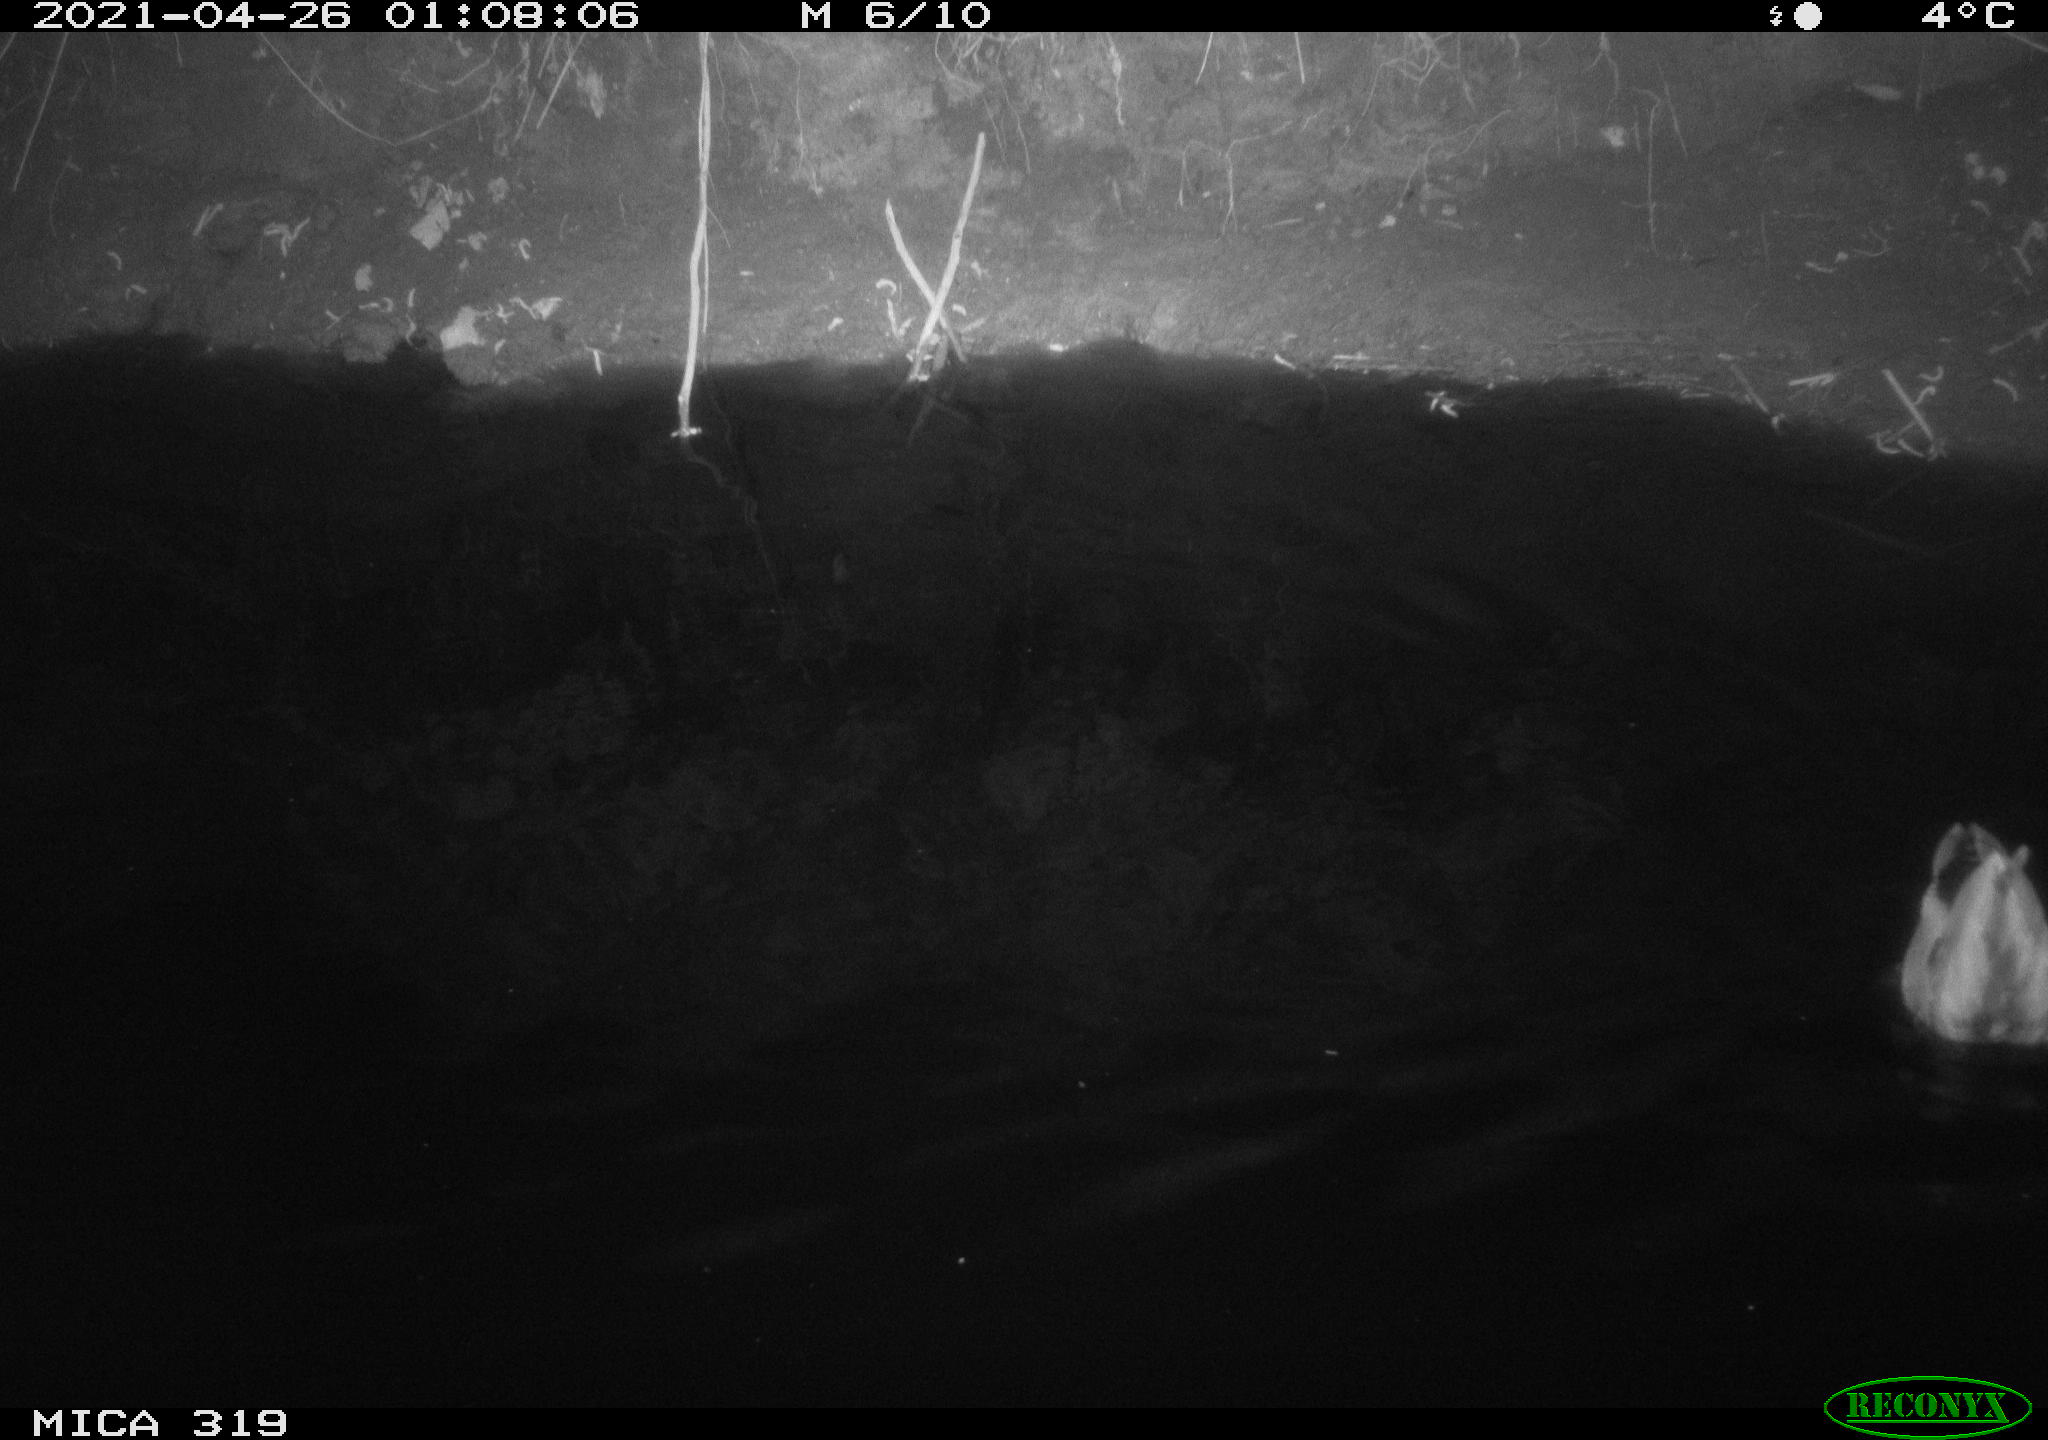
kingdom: Animalia
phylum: Chordata
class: Aves
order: Anseriformes
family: Anatidae
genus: Anas
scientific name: Anas platyrhynchos
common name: Mallard
